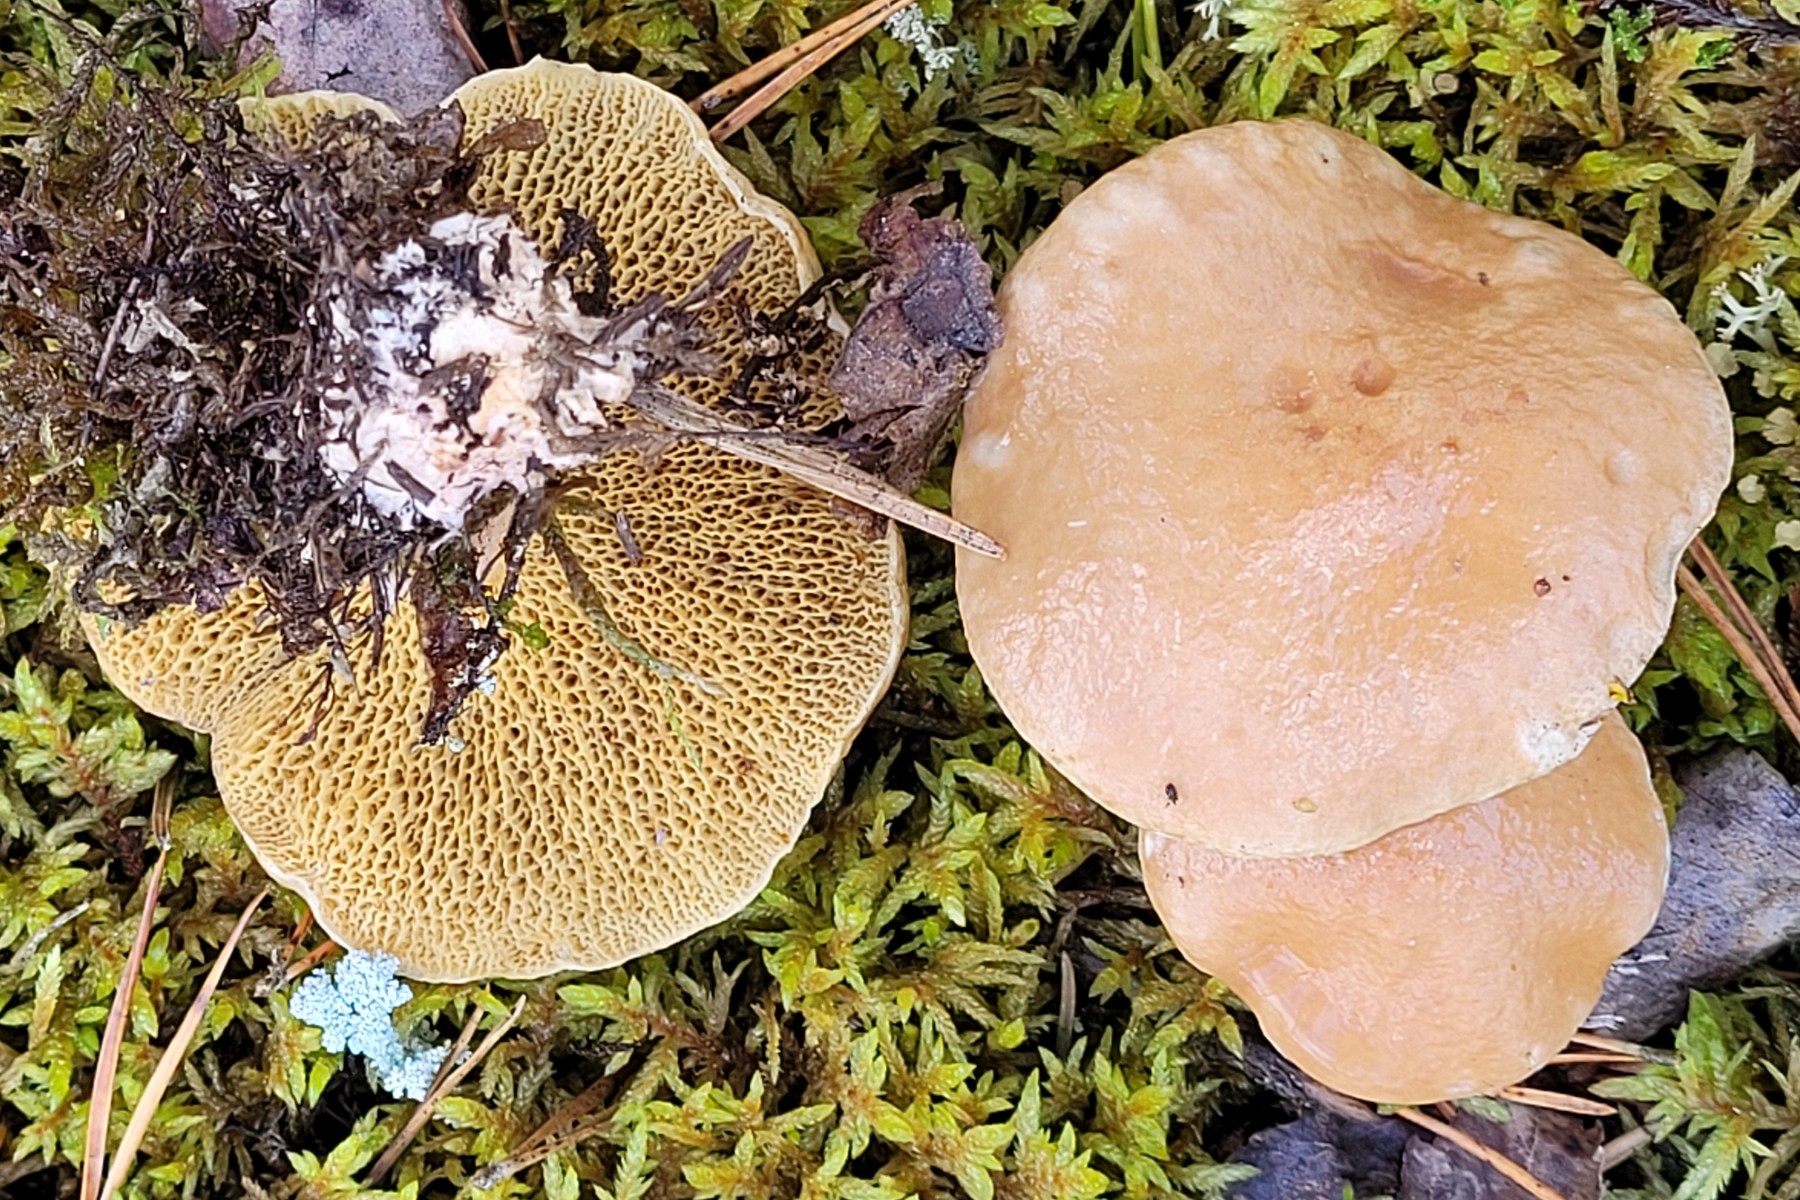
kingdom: Fungi
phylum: Basidiomycota
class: Agaricomycetes
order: Boletales
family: Suillaceae
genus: Suillus
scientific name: Suillus bovinus
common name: grovporet slimrørhat
